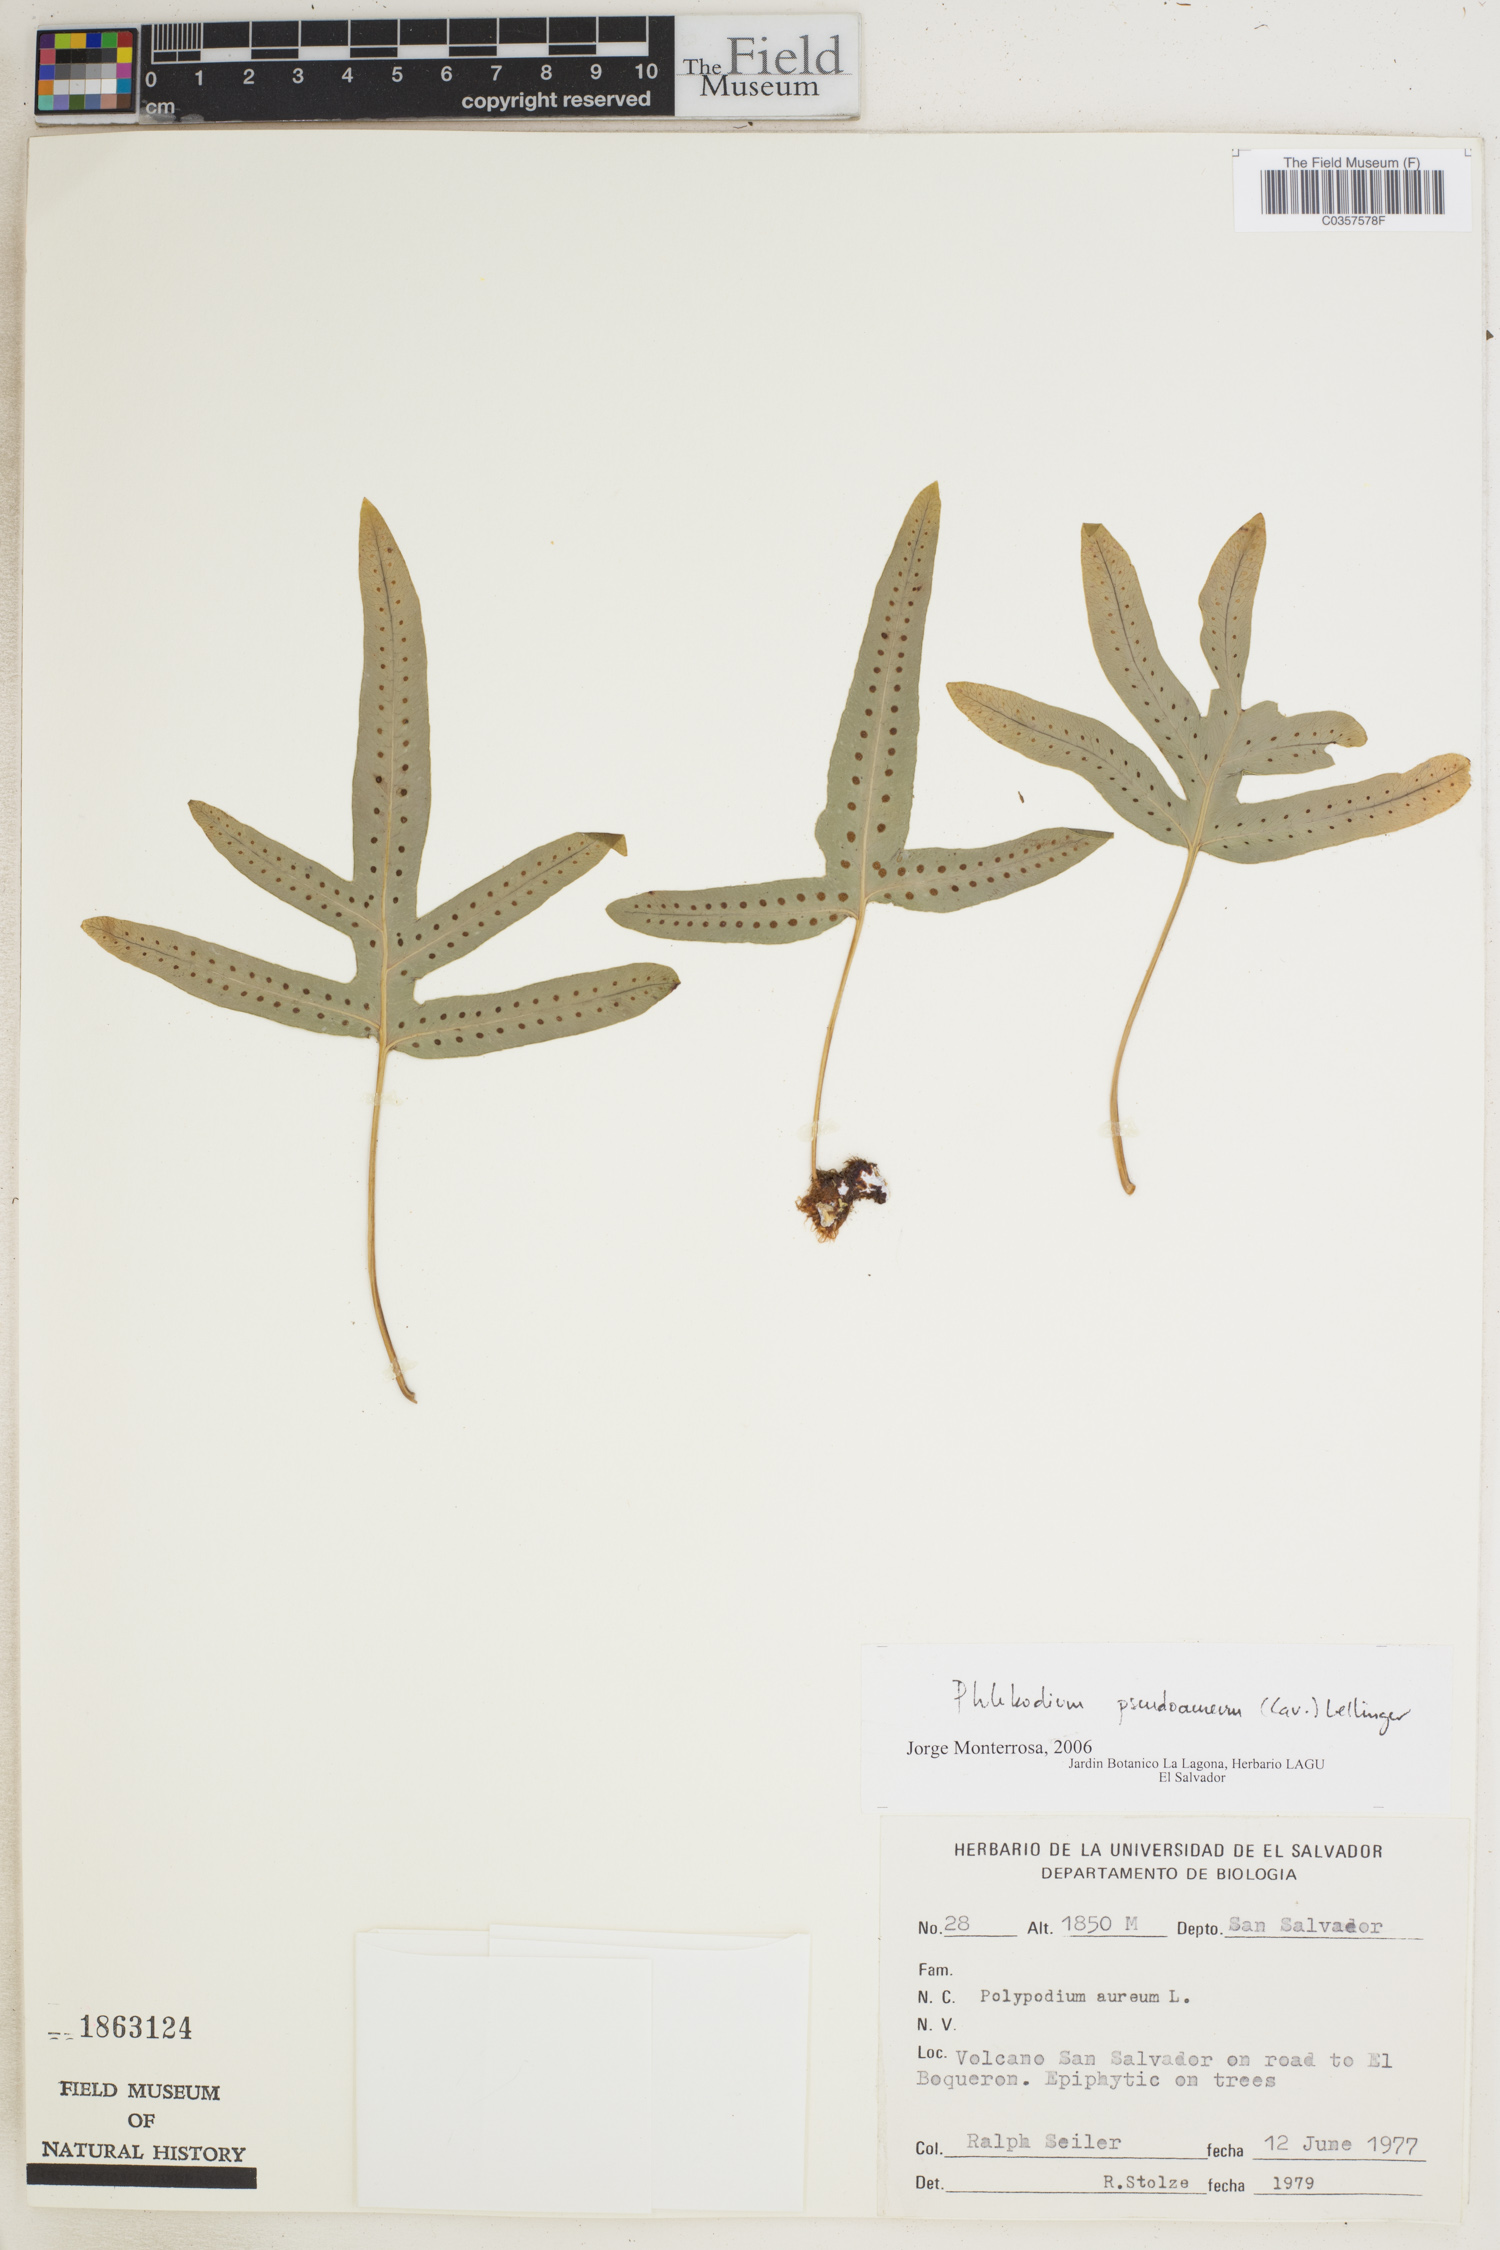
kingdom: Plantae
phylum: Tracheophyta
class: Polypodiopsida
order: Polypodiales
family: Polypodiaceae
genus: Phlebodium
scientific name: Phlebodium pseudoaureum
